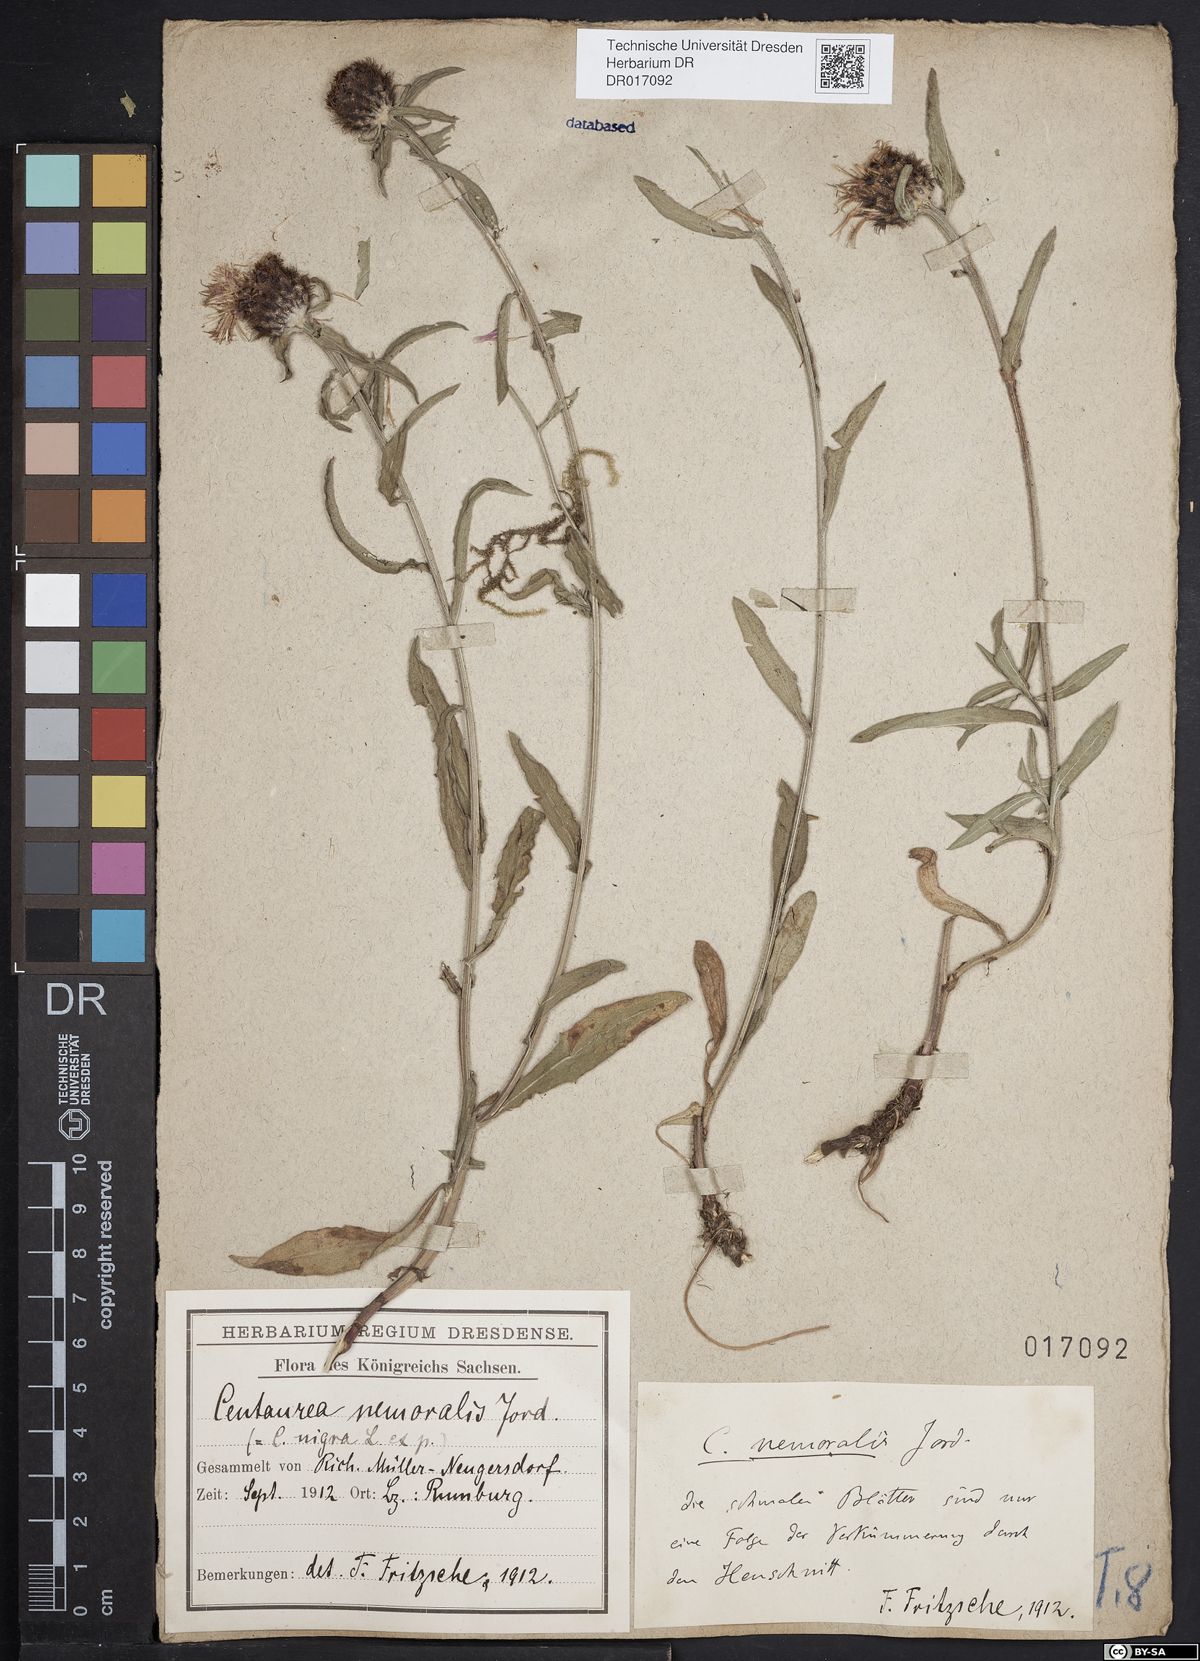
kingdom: Plantae
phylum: Tracheophyta
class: Magnoliopsida
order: Asterales
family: Asteraceae
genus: Centaurea
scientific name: Centaurea nigra
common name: Lesser knapweed
